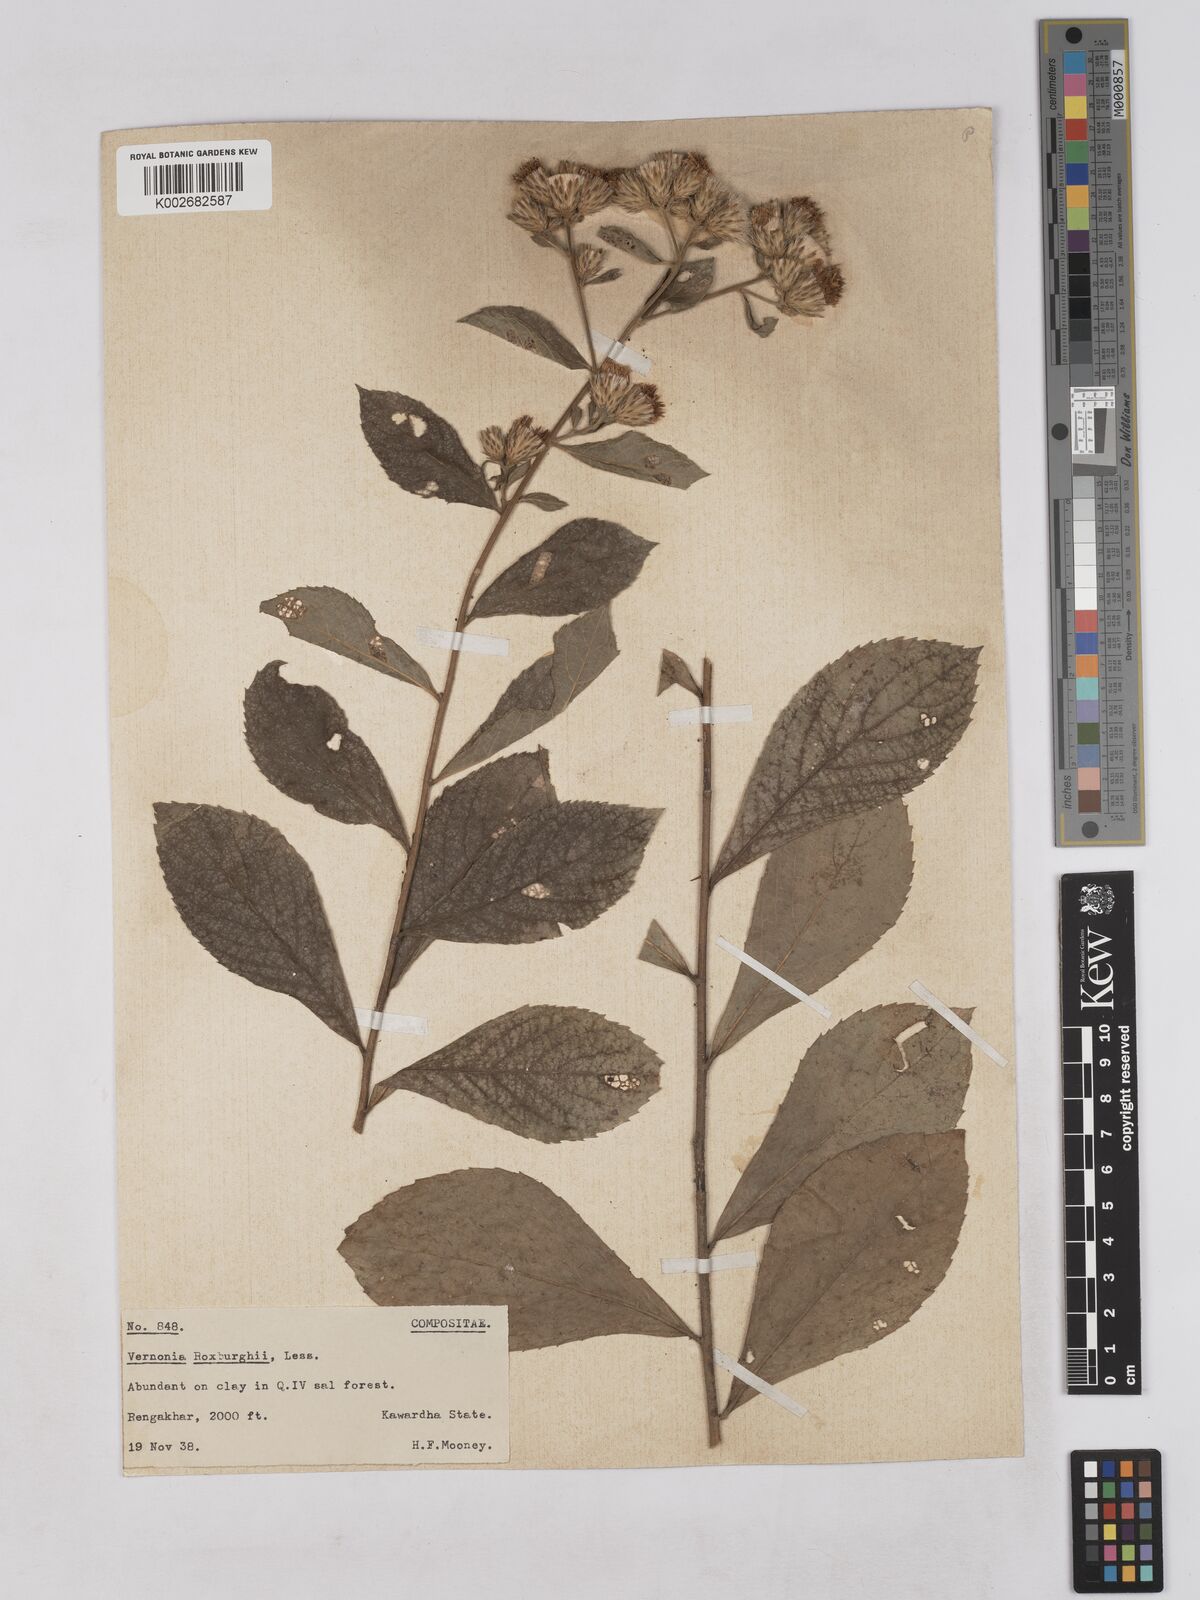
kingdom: Plantae
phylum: Tracheophyta
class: Magnoliopsida
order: Asterales
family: Asteraceae
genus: Acilepis
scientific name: Acilepis aspera
